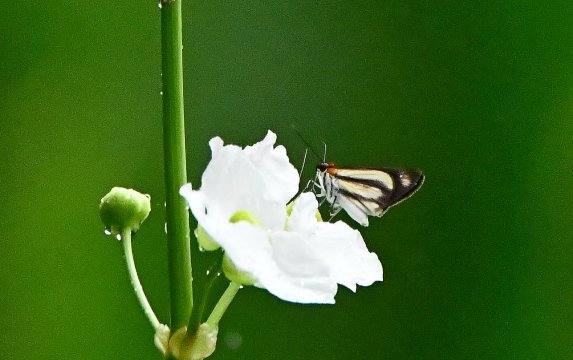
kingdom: Animalia
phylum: Arthropoda
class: Insecta
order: Lepidoptera
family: Hesperiidae
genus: Vettius
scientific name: Vettius marcus
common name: Marcus Skipper
